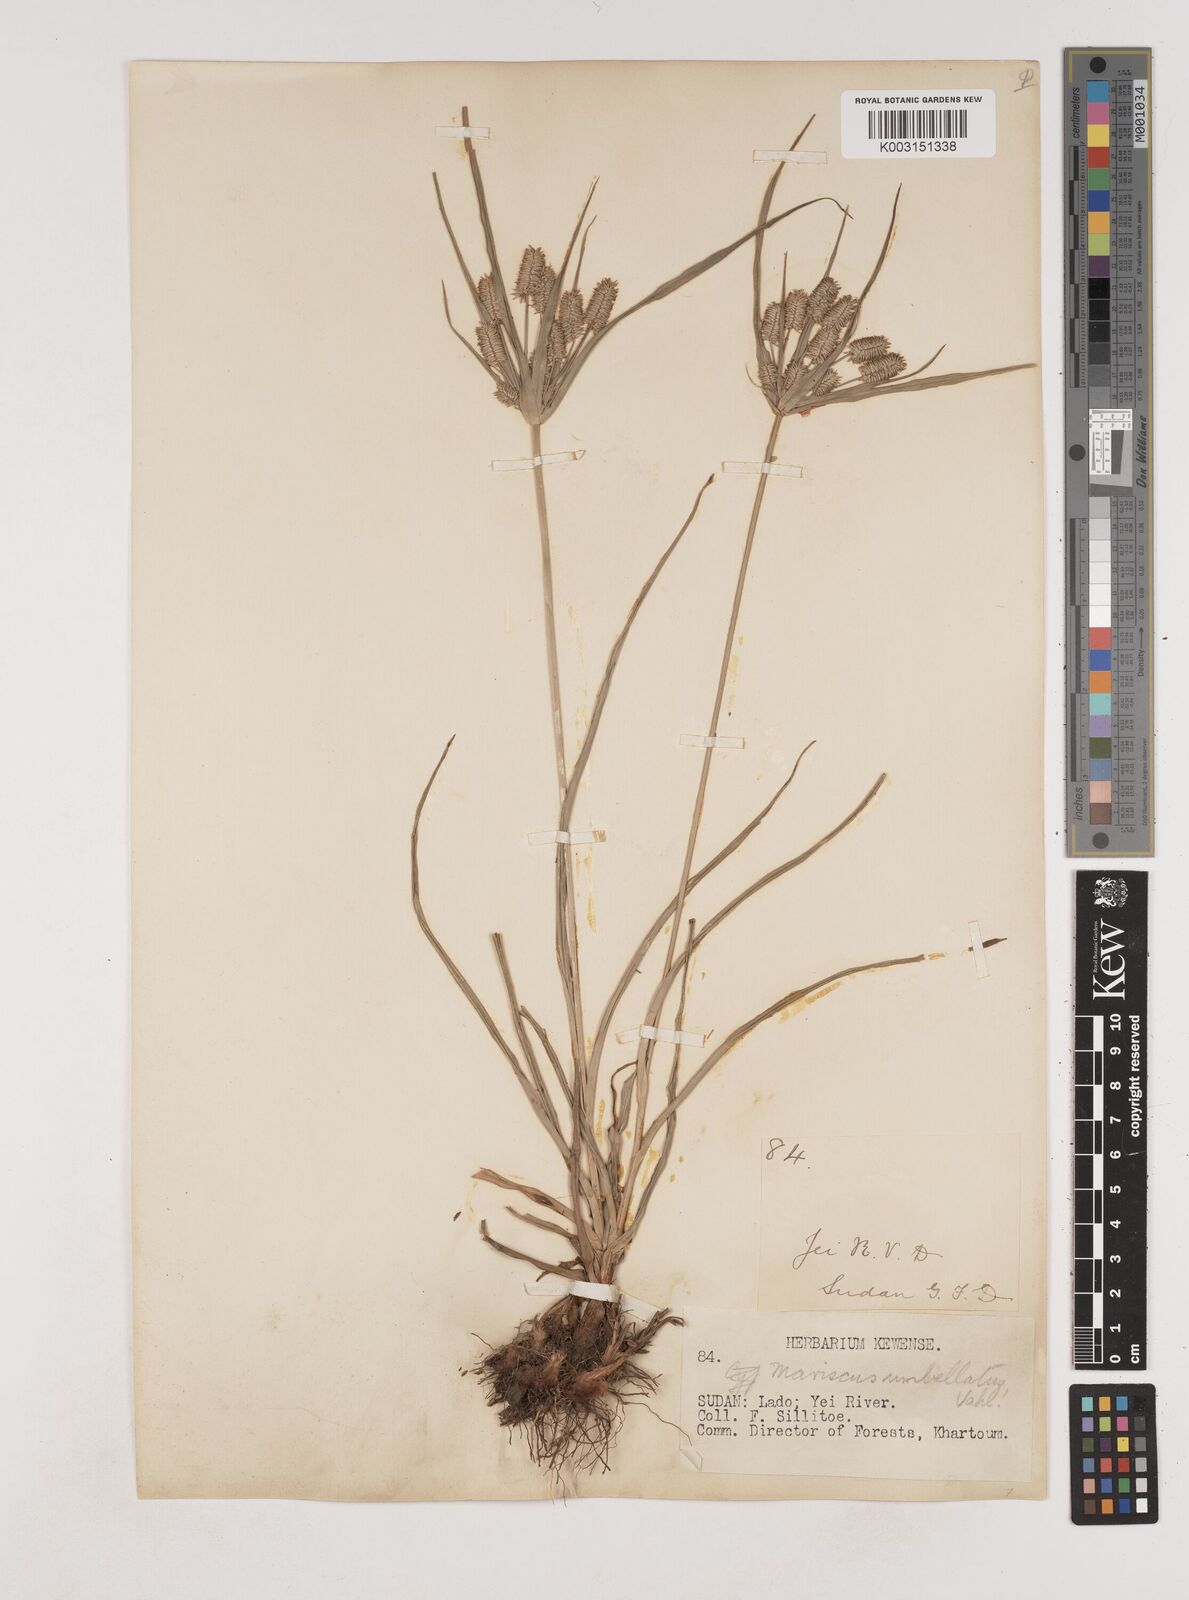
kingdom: Plantae
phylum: Tracheophyta
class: Liliopsida
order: Poales
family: Cyperaceae
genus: Cyperus
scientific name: Cyperus cyperoides
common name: Pacific island flat sedge
